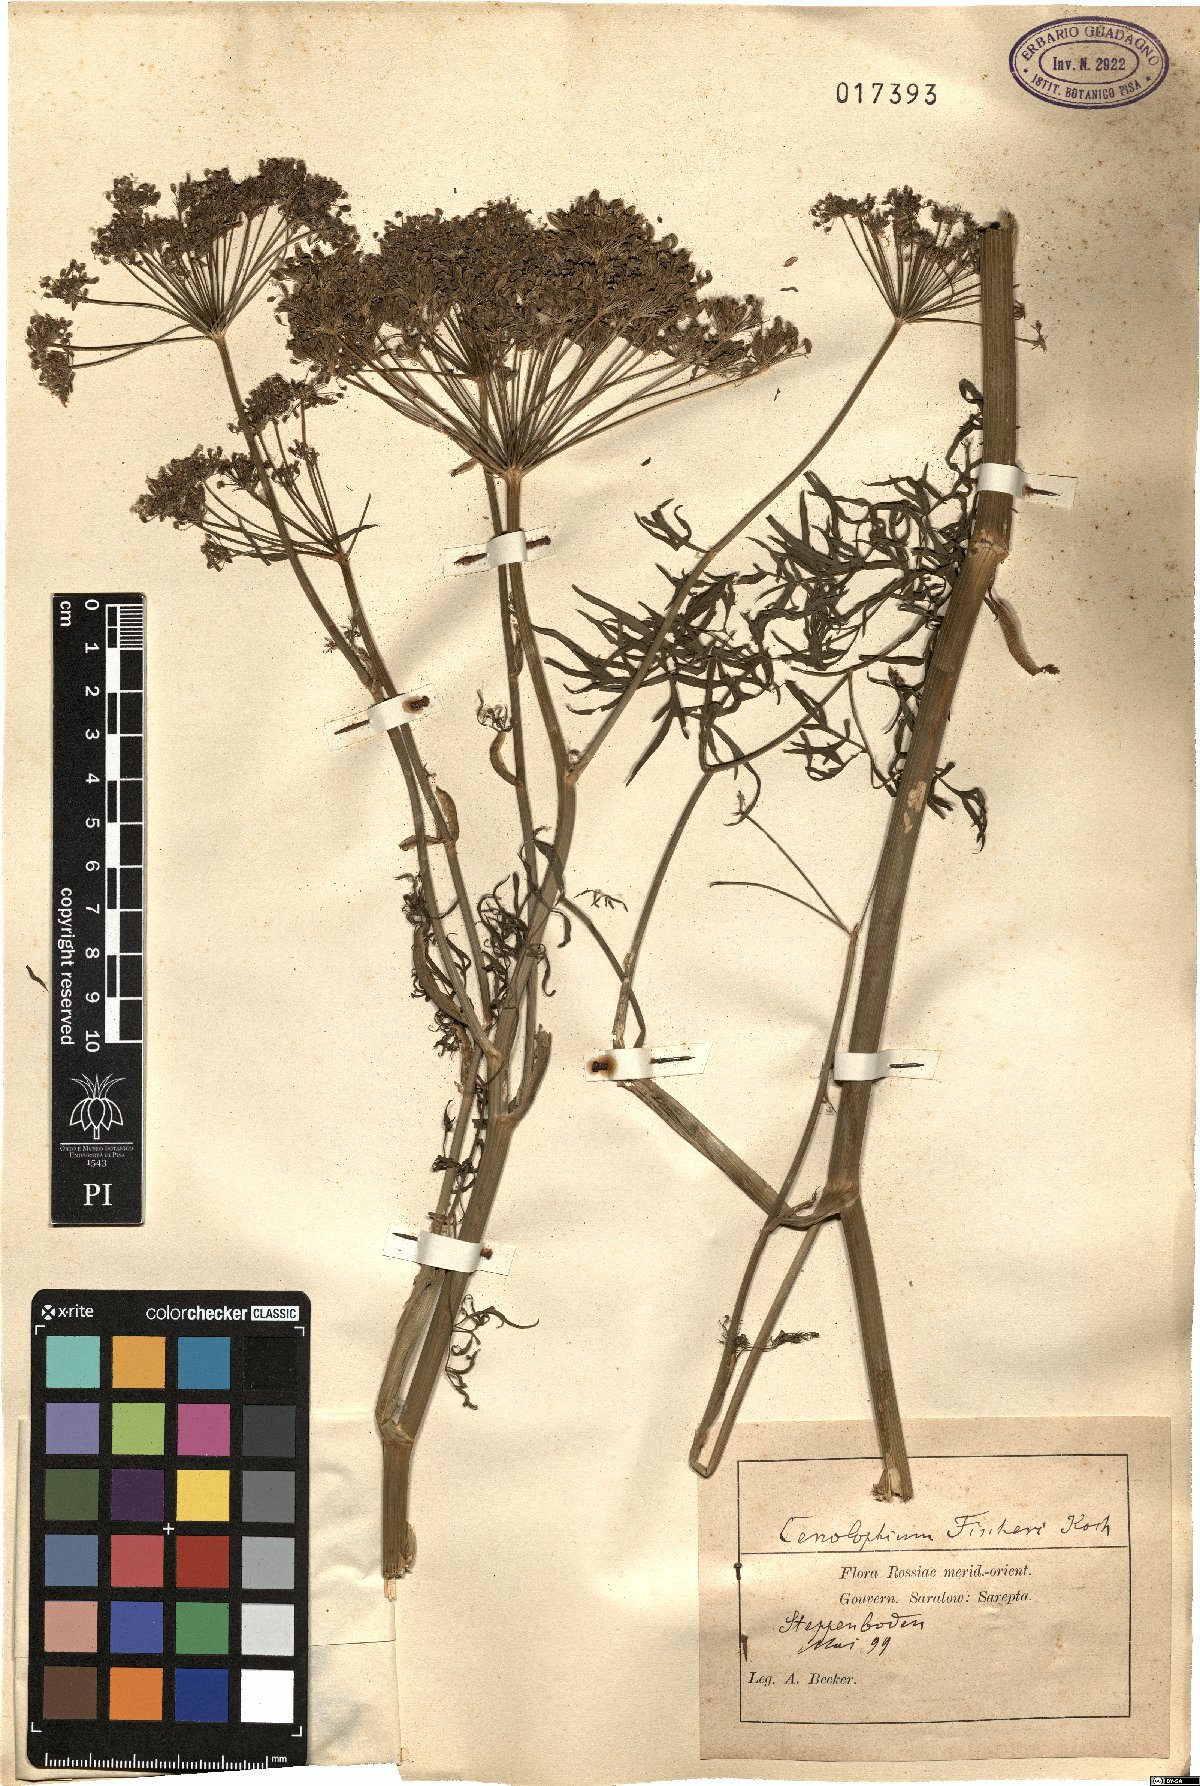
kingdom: Plantae
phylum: Tracheophyta
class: Magnoliopsida
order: Apiales
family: Apiaceae
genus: Cenolophium
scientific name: Cenolophium fischeri
